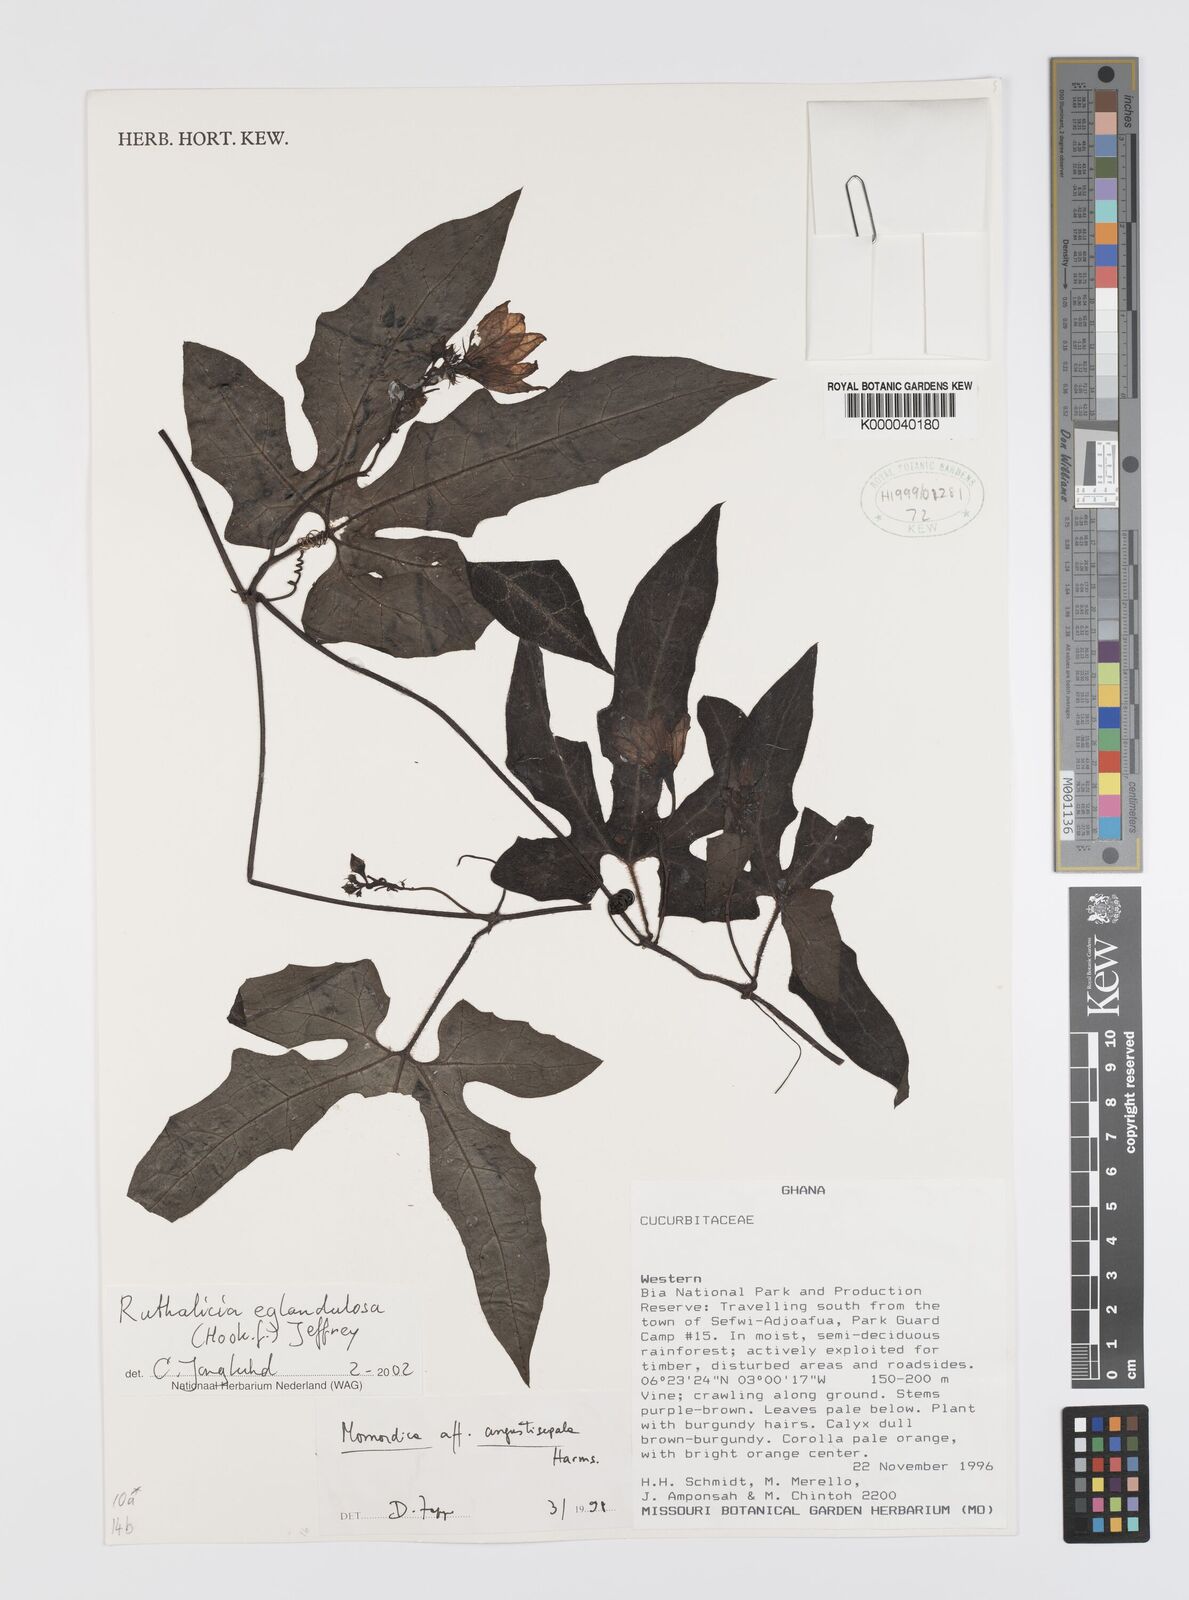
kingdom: Plantae
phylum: Tracheophyta
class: Magnoliopsida
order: Cucurbitales
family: Cucurbitaceae
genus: Momordica
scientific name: Momordica
